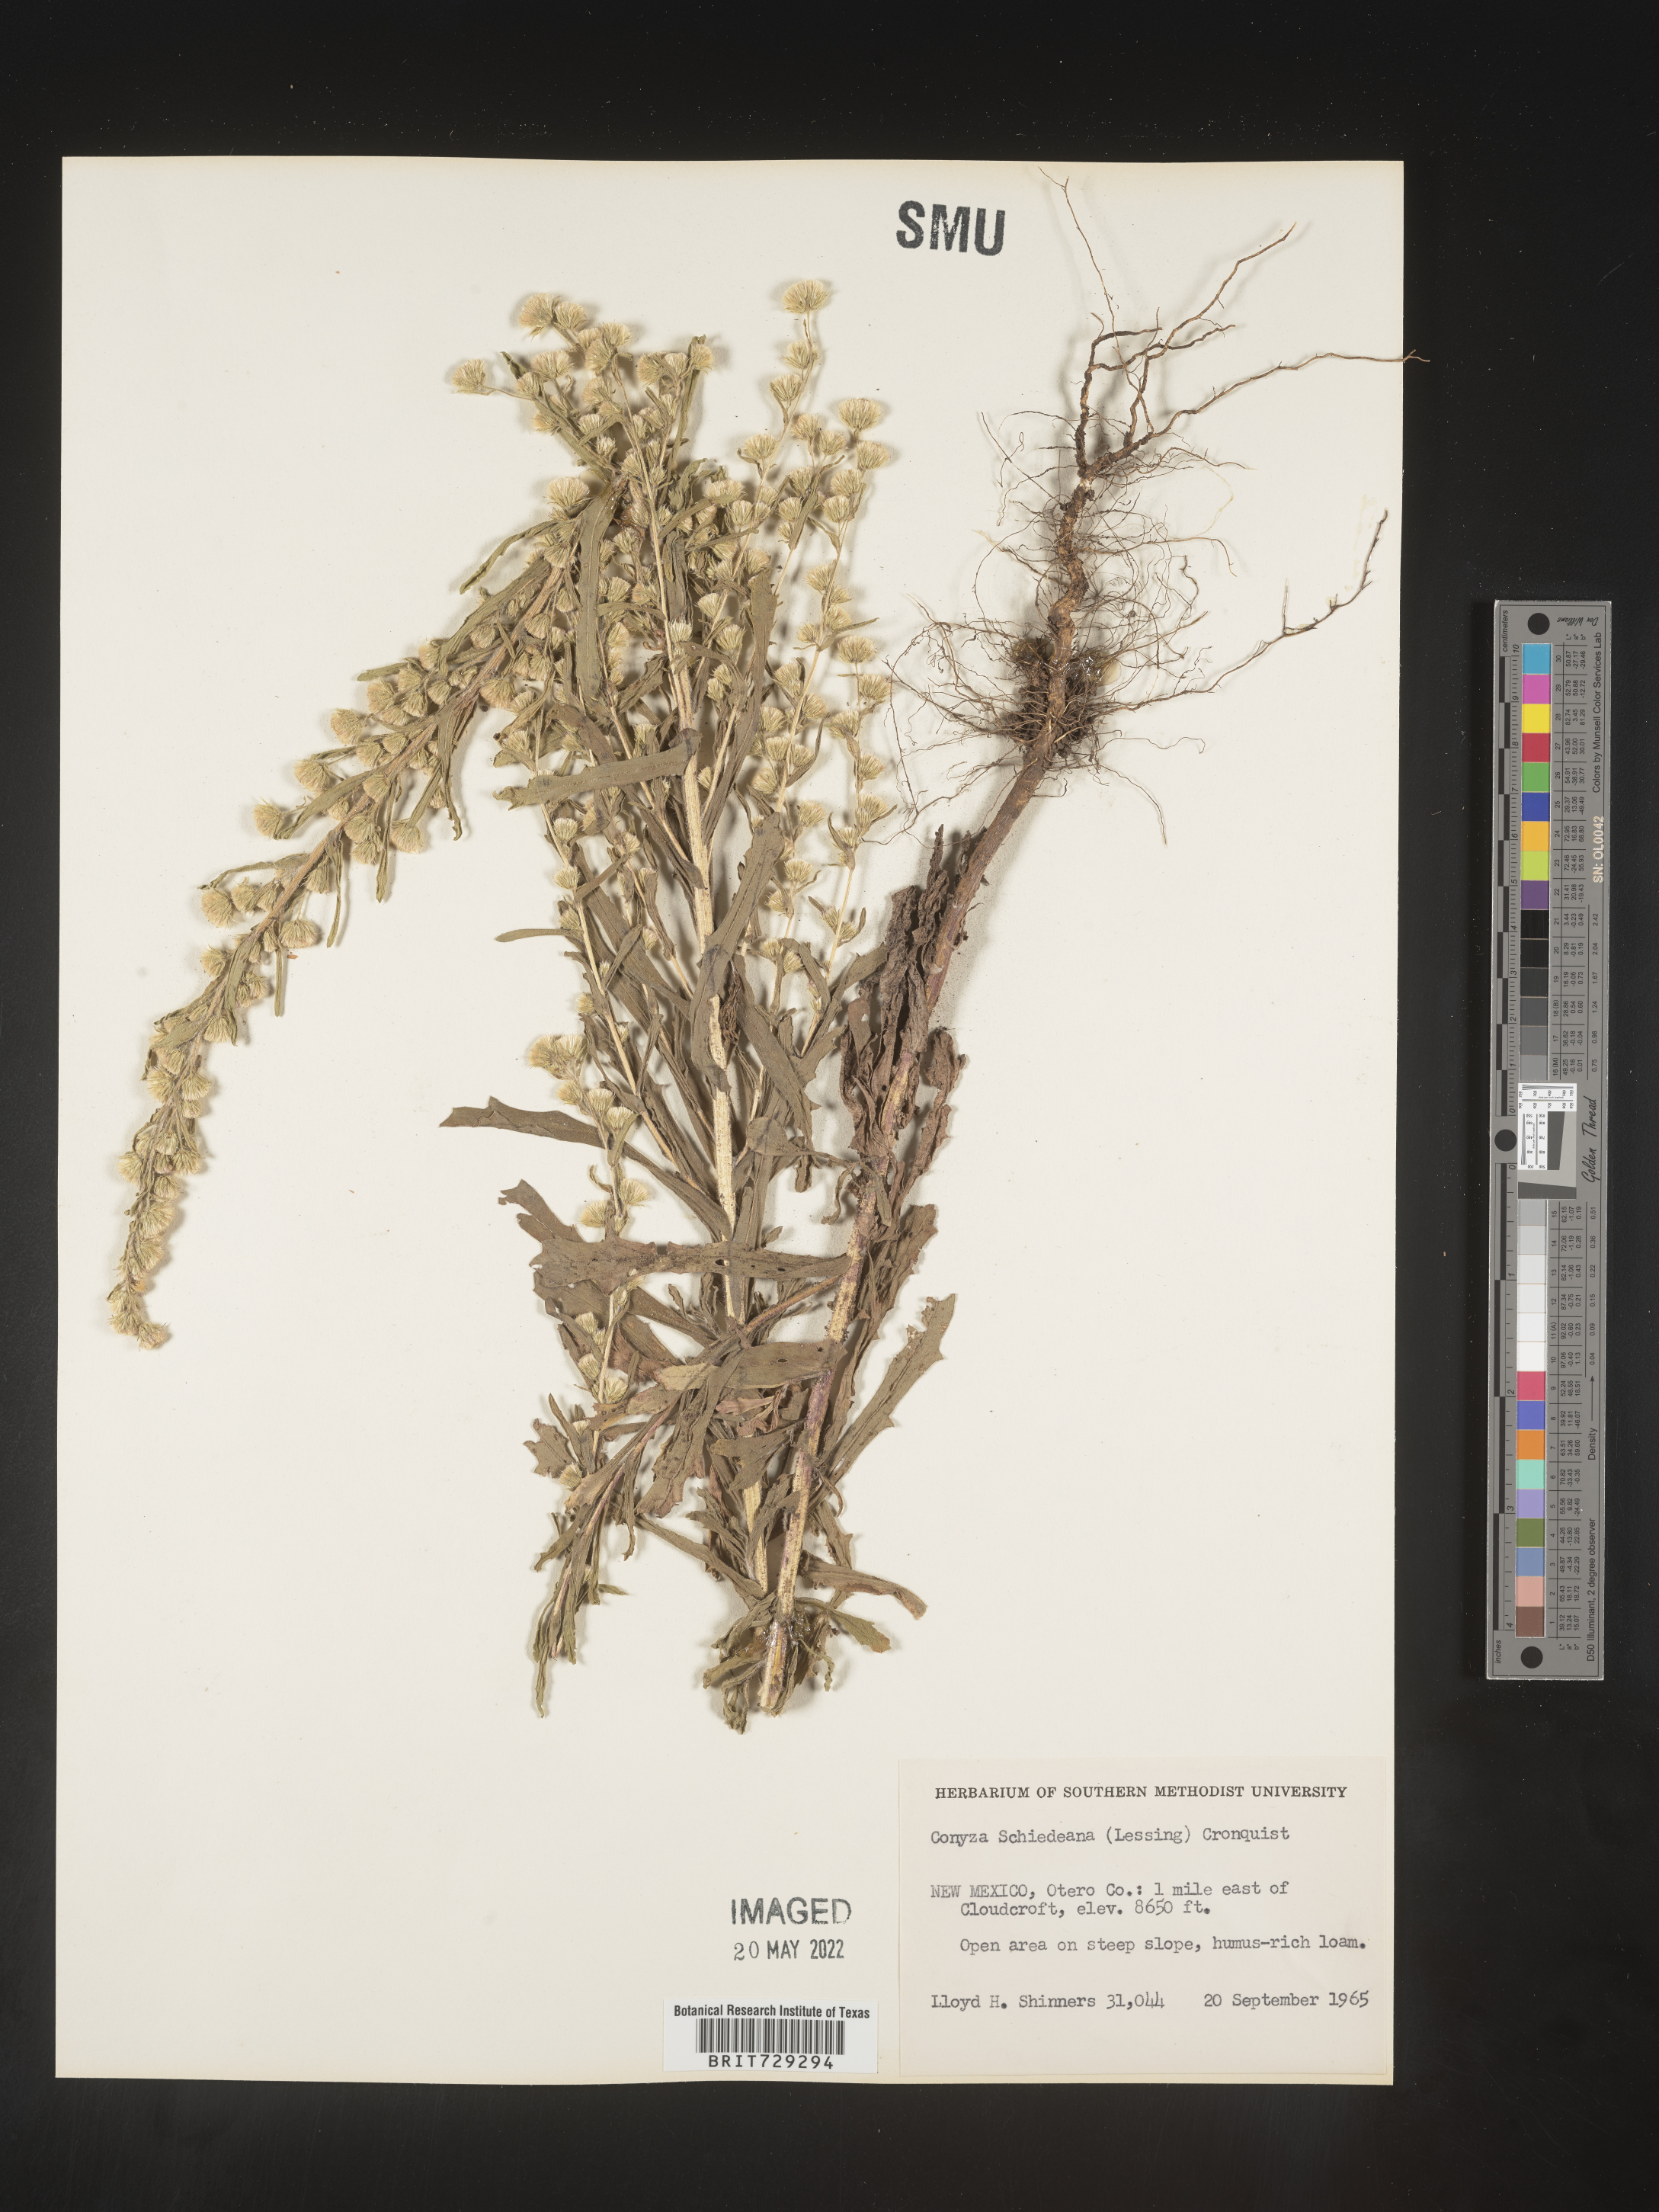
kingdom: Plantae
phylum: Tracheophyta
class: Magnoliopsida
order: Asterales
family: Asteraceae
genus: Laennecia
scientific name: Laennecia schiedeana
